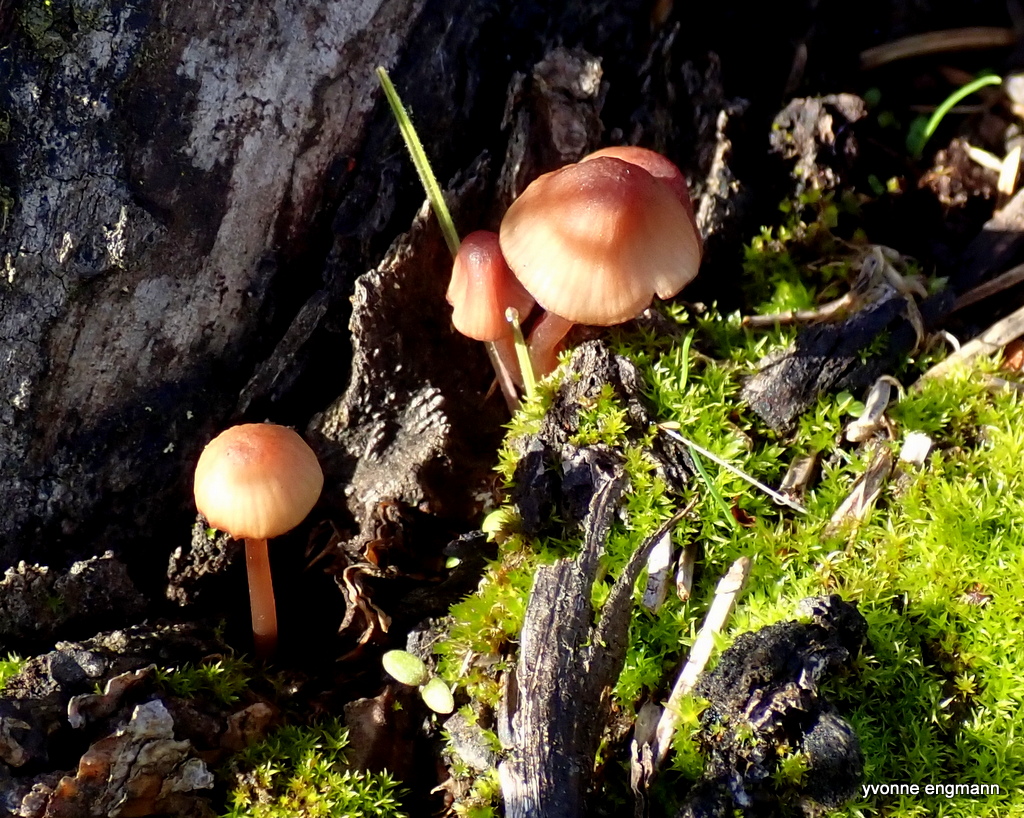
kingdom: Fungi
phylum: Basidiomycota
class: Agaricomycetes
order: Agaricales
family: Mycenaceae
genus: Mycena
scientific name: Mycena sanguinolenta
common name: rødmælket huesvamp
